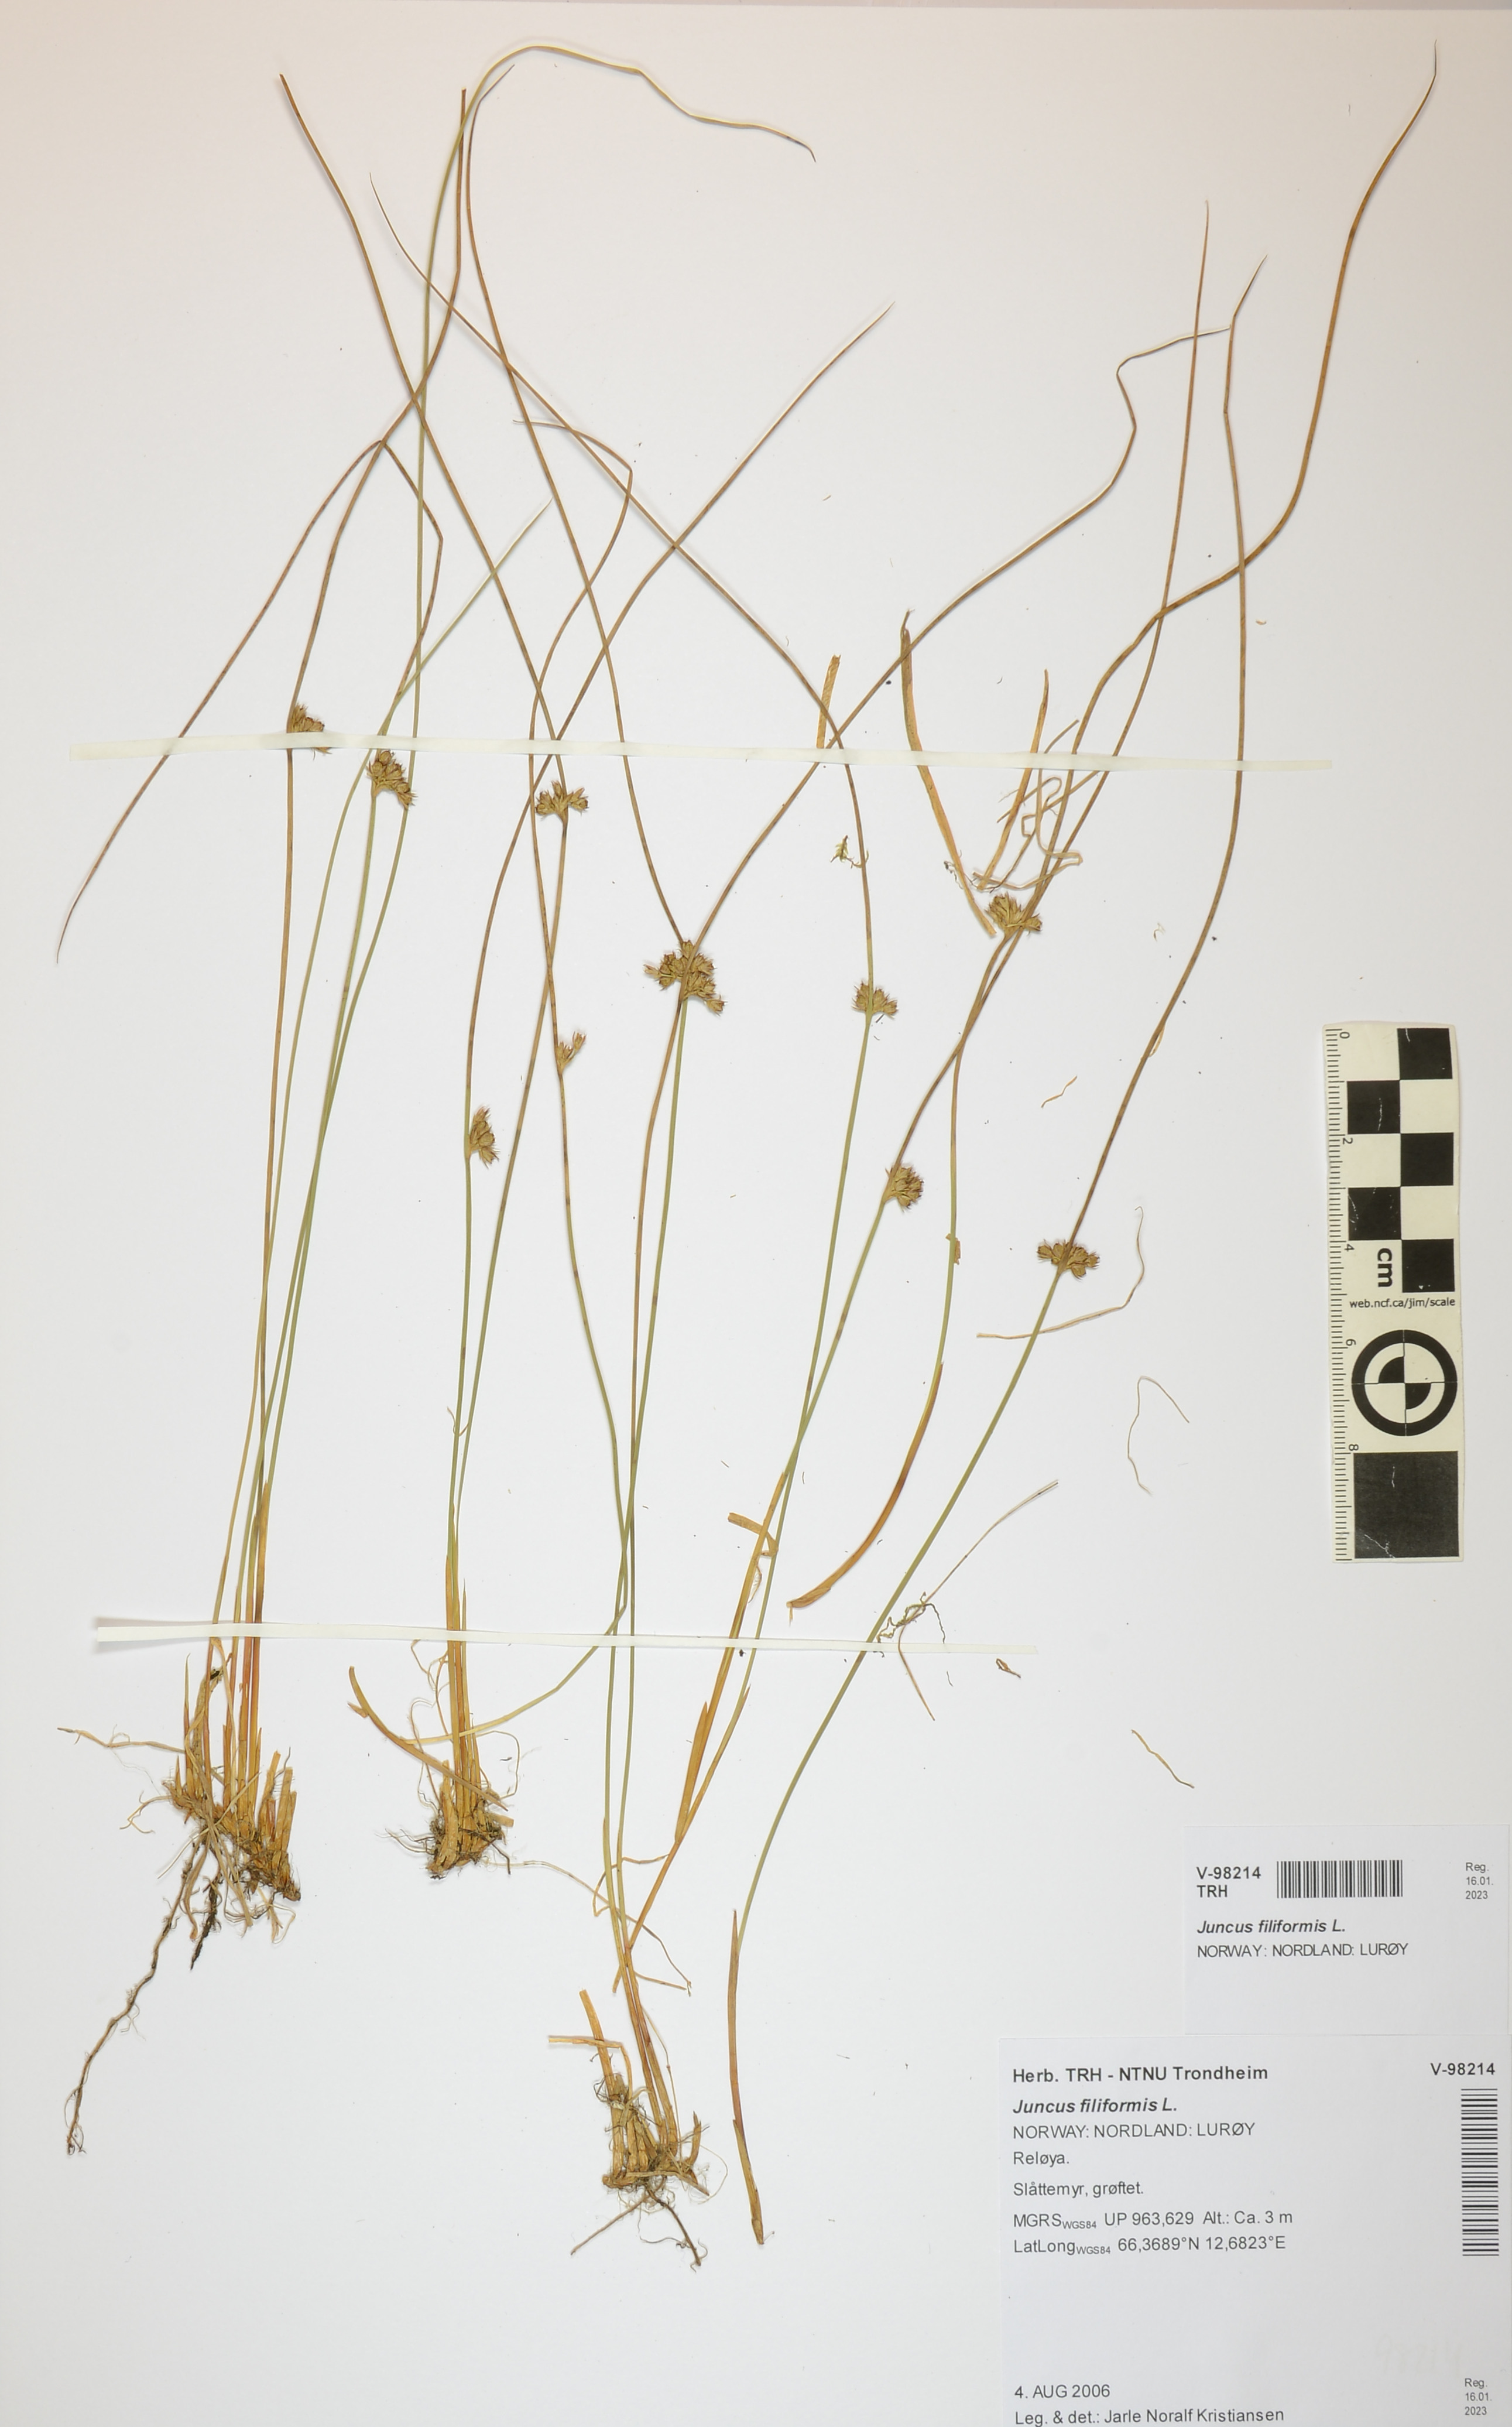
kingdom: Plantae
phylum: Tracheophyta
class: Liliopsida
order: Poales
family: Juncaceae
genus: Juncus
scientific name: Juncus filiformis
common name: Thread rush
